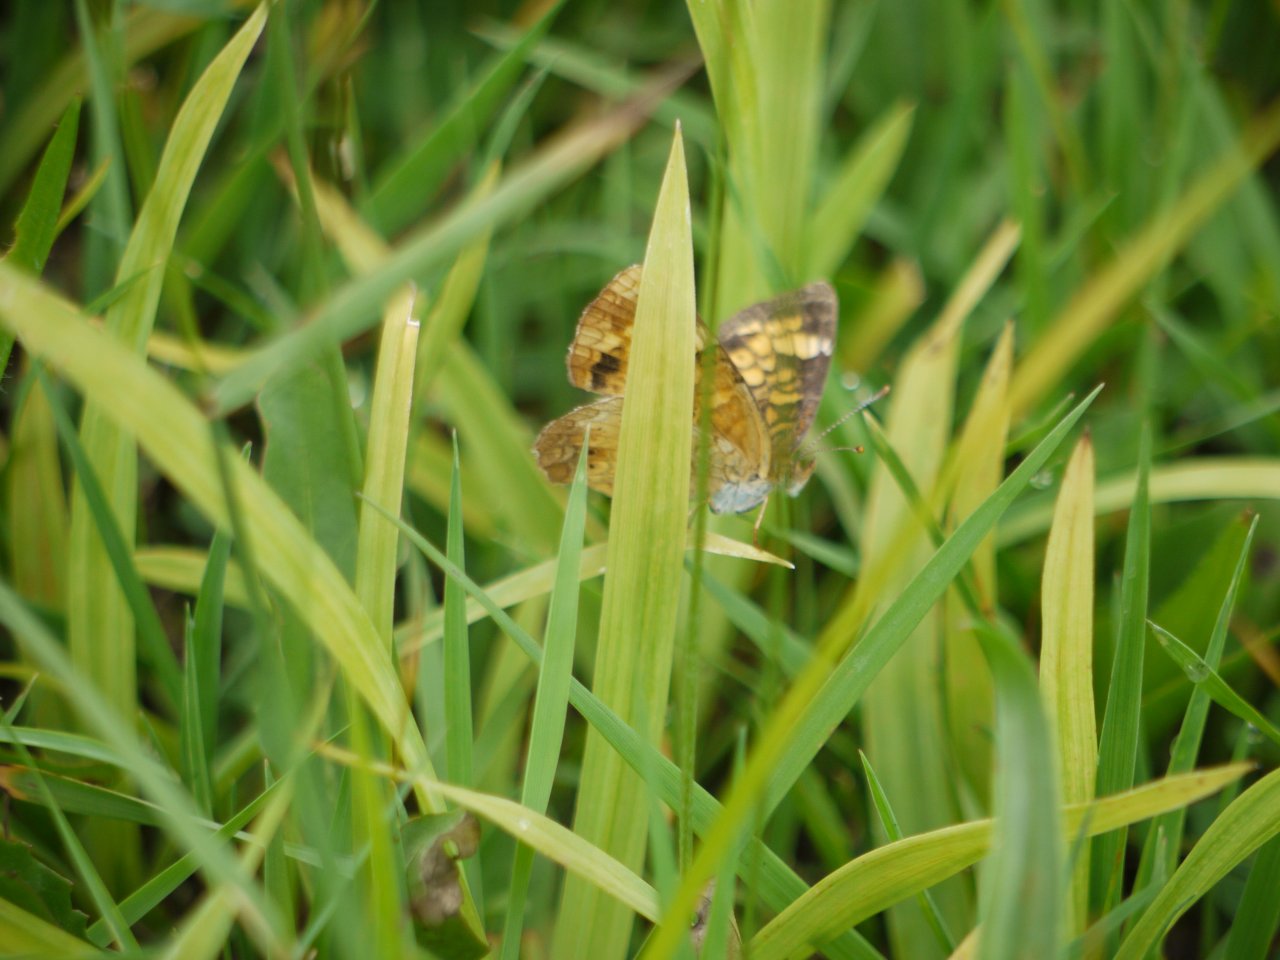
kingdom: Animalia
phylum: Arthropoda
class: Insecta
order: Lepidoptera
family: Nymphalidae
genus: Phyciodes
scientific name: Phyciodes
